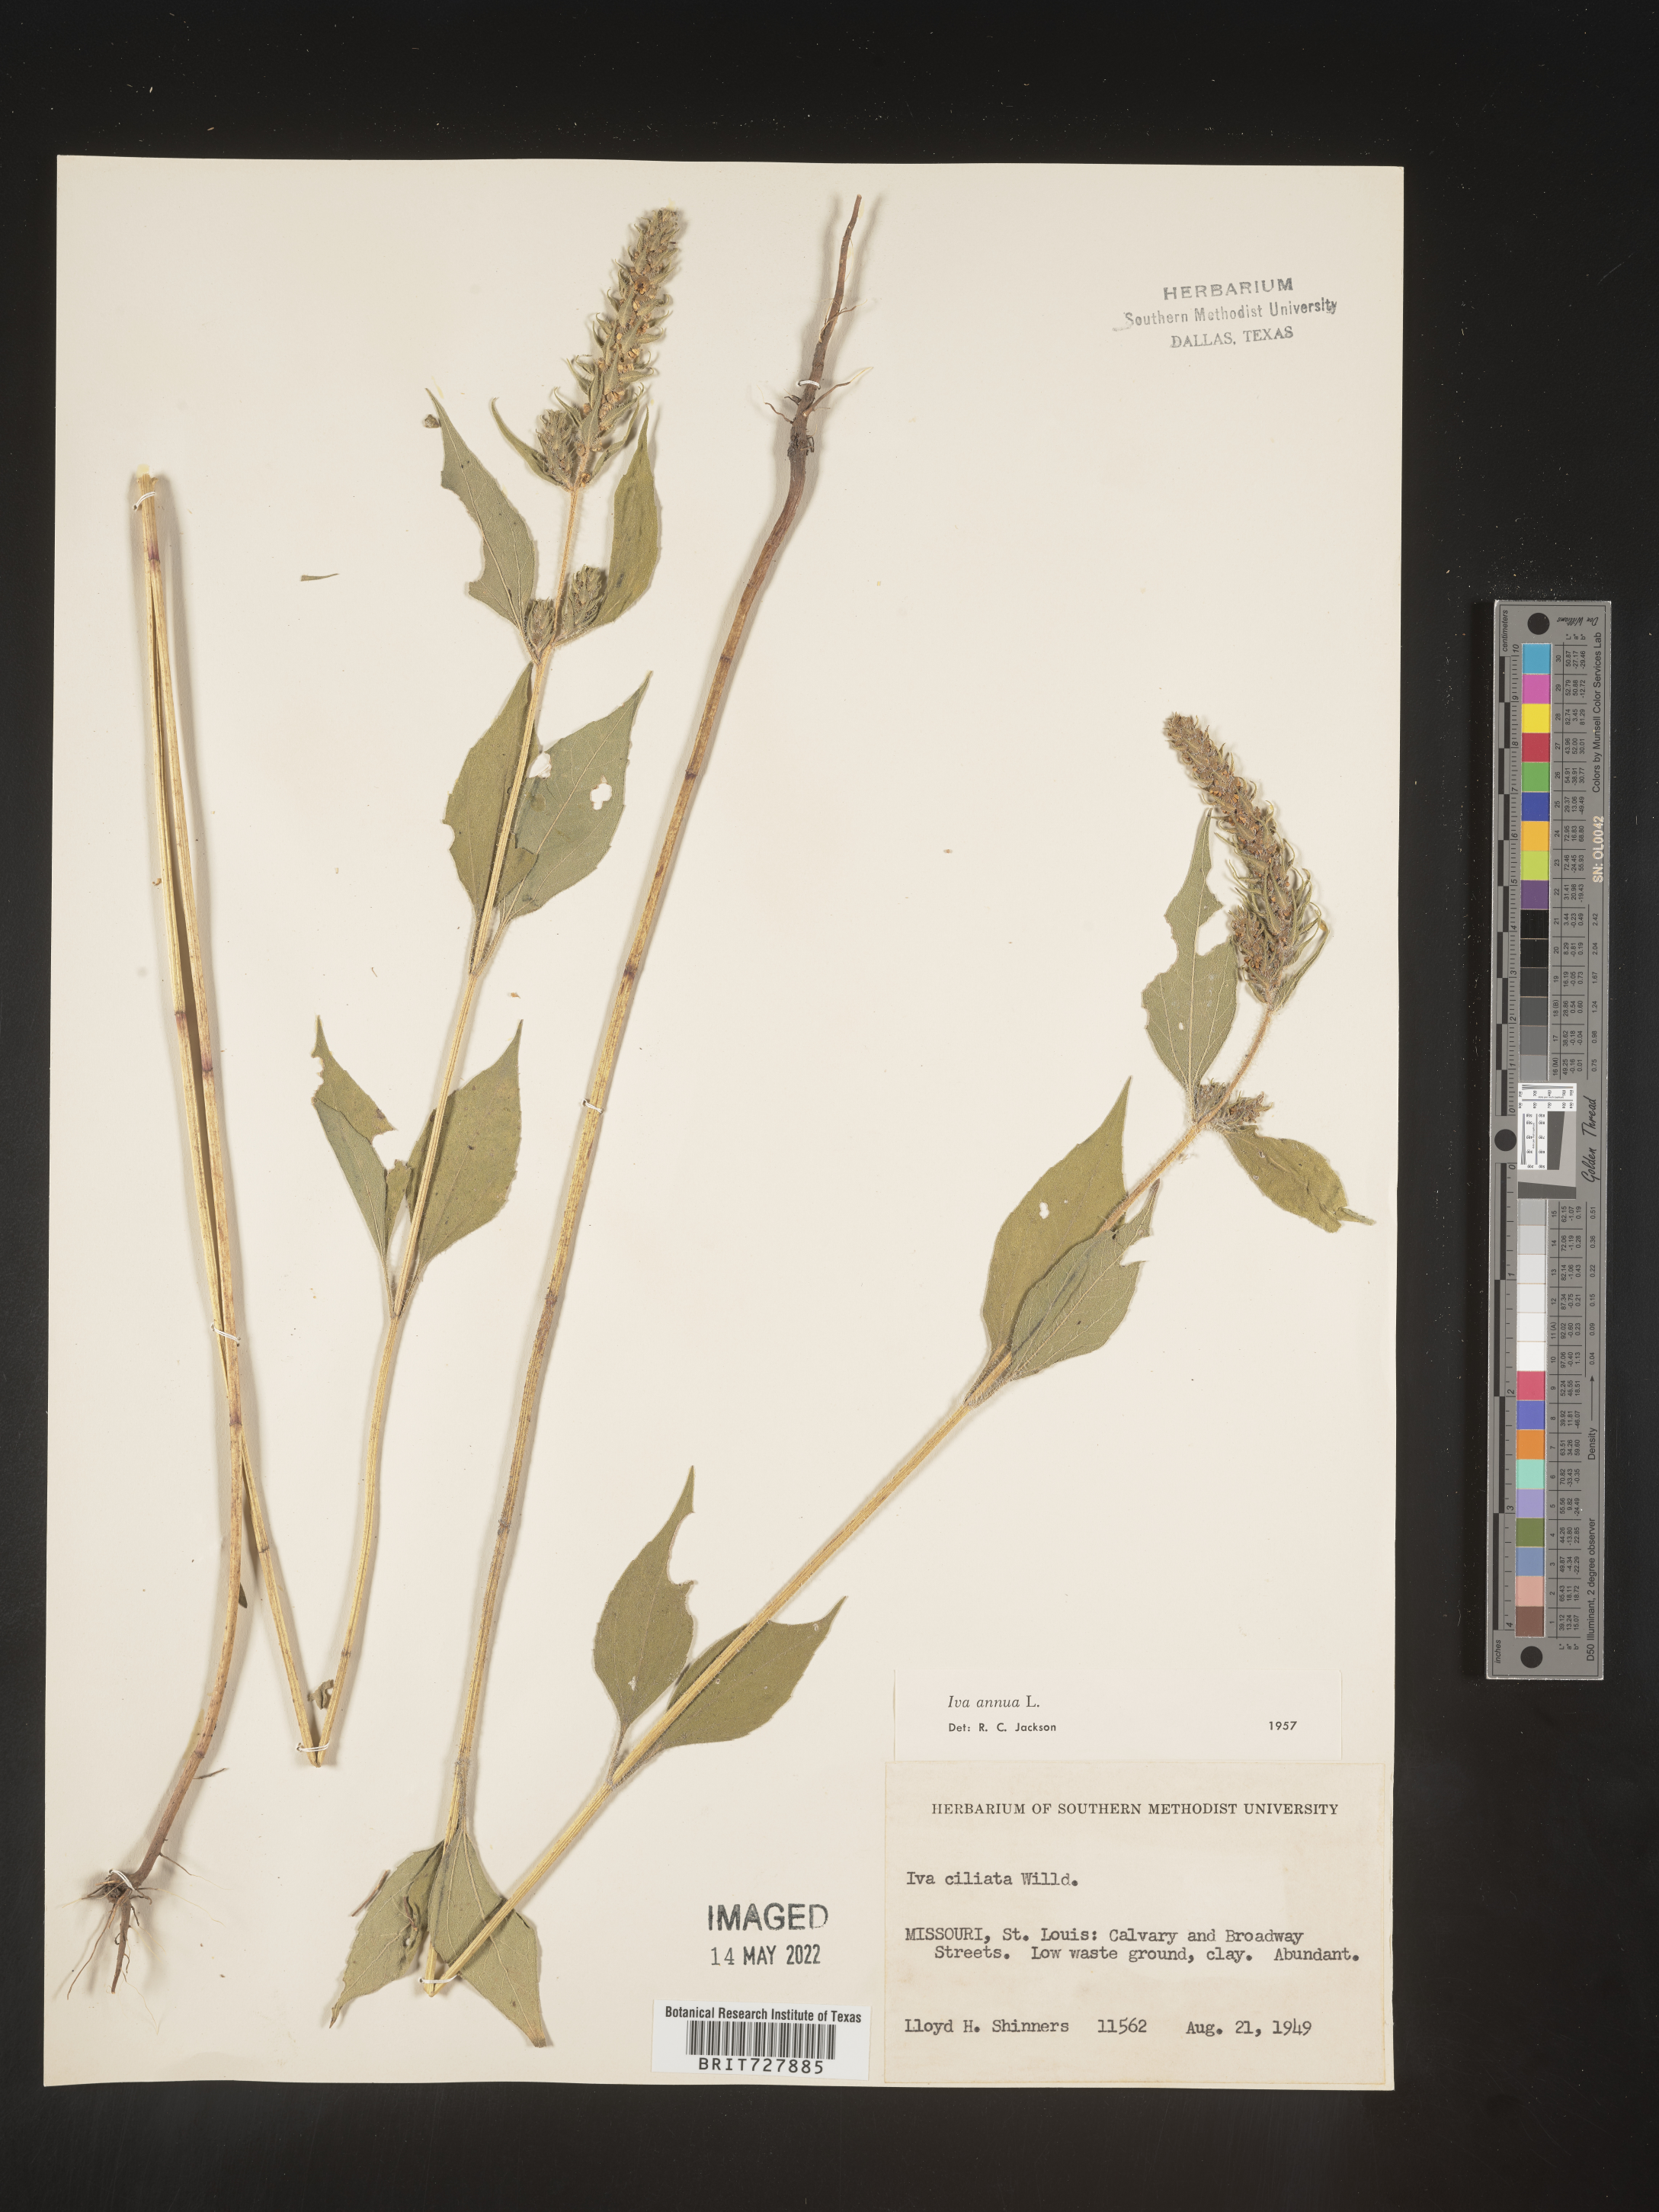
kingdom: Plantae
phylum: Tracheophyta
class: Magnoliopsida
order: Asterales
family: Asteraceae
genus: Iva
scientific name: Iva annua
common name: Marsh-elder
